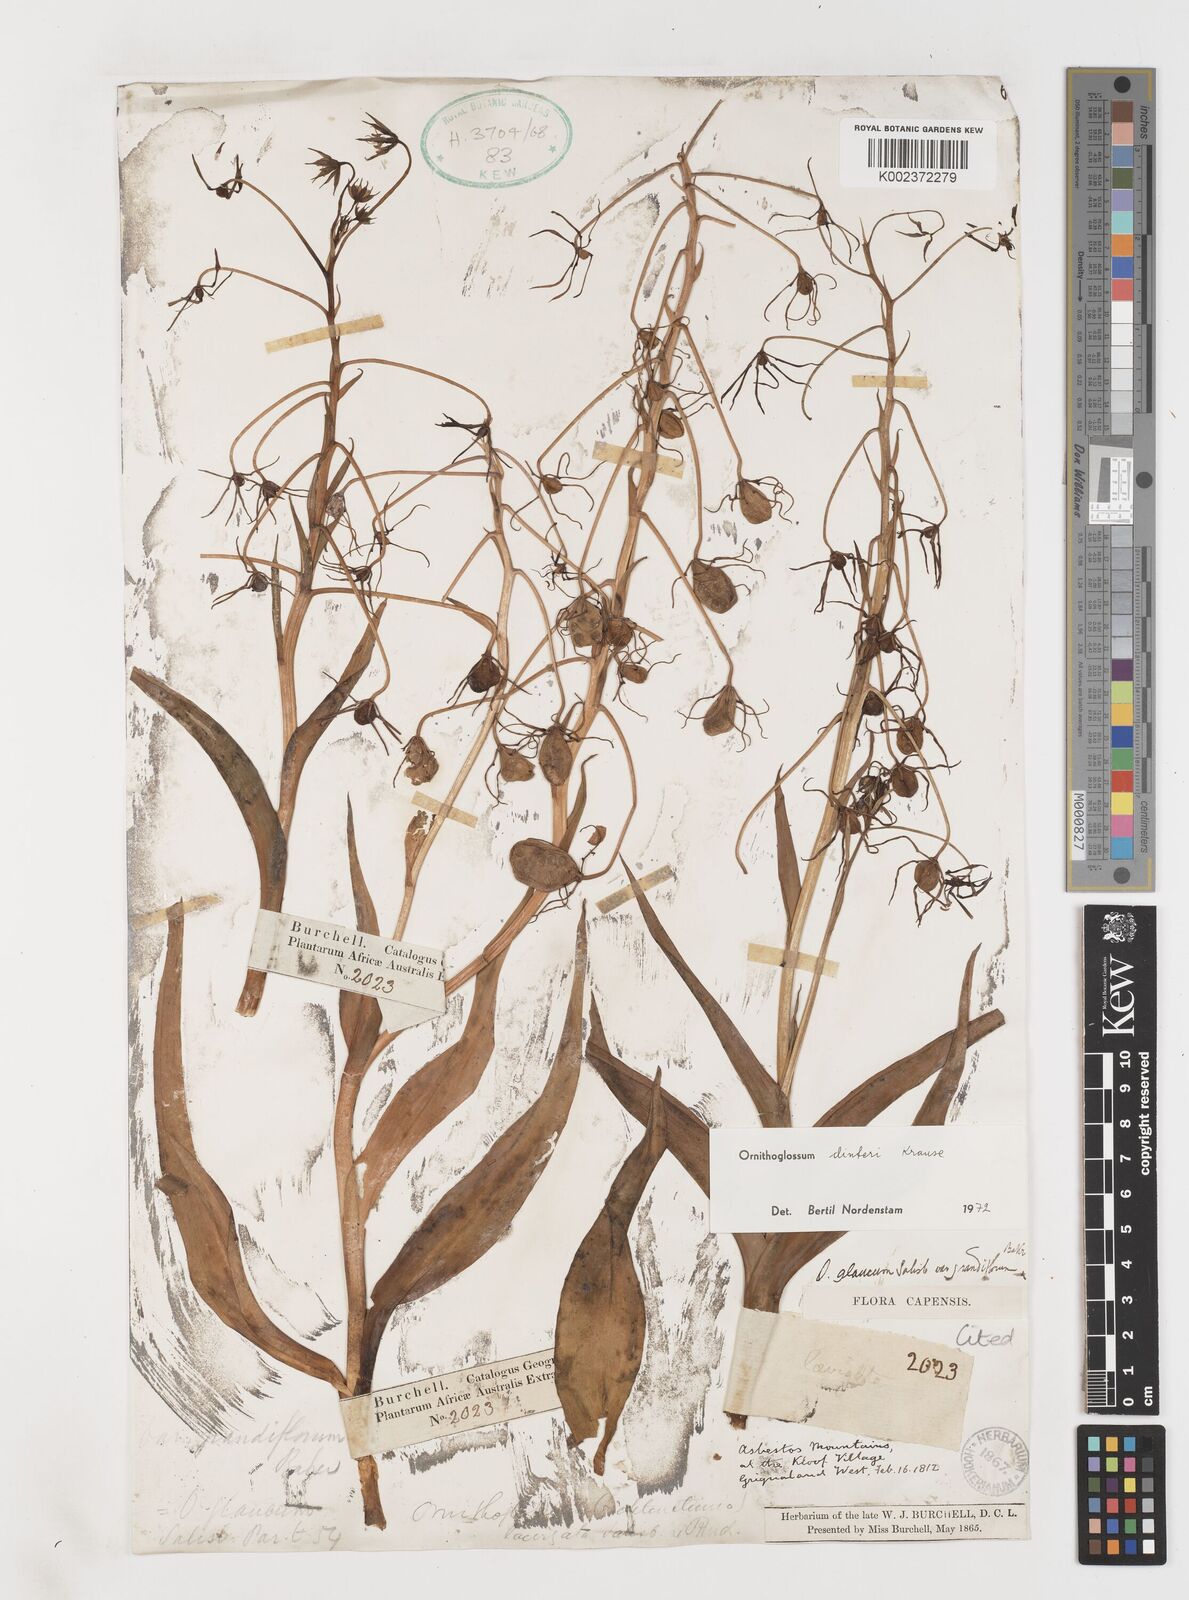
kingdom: Plantae
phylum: Tracheophyta
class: Liliopsida
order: Liliales
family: Colchicaceae
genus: Ornithoglossum
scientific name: Ornithoglossum dinteri
